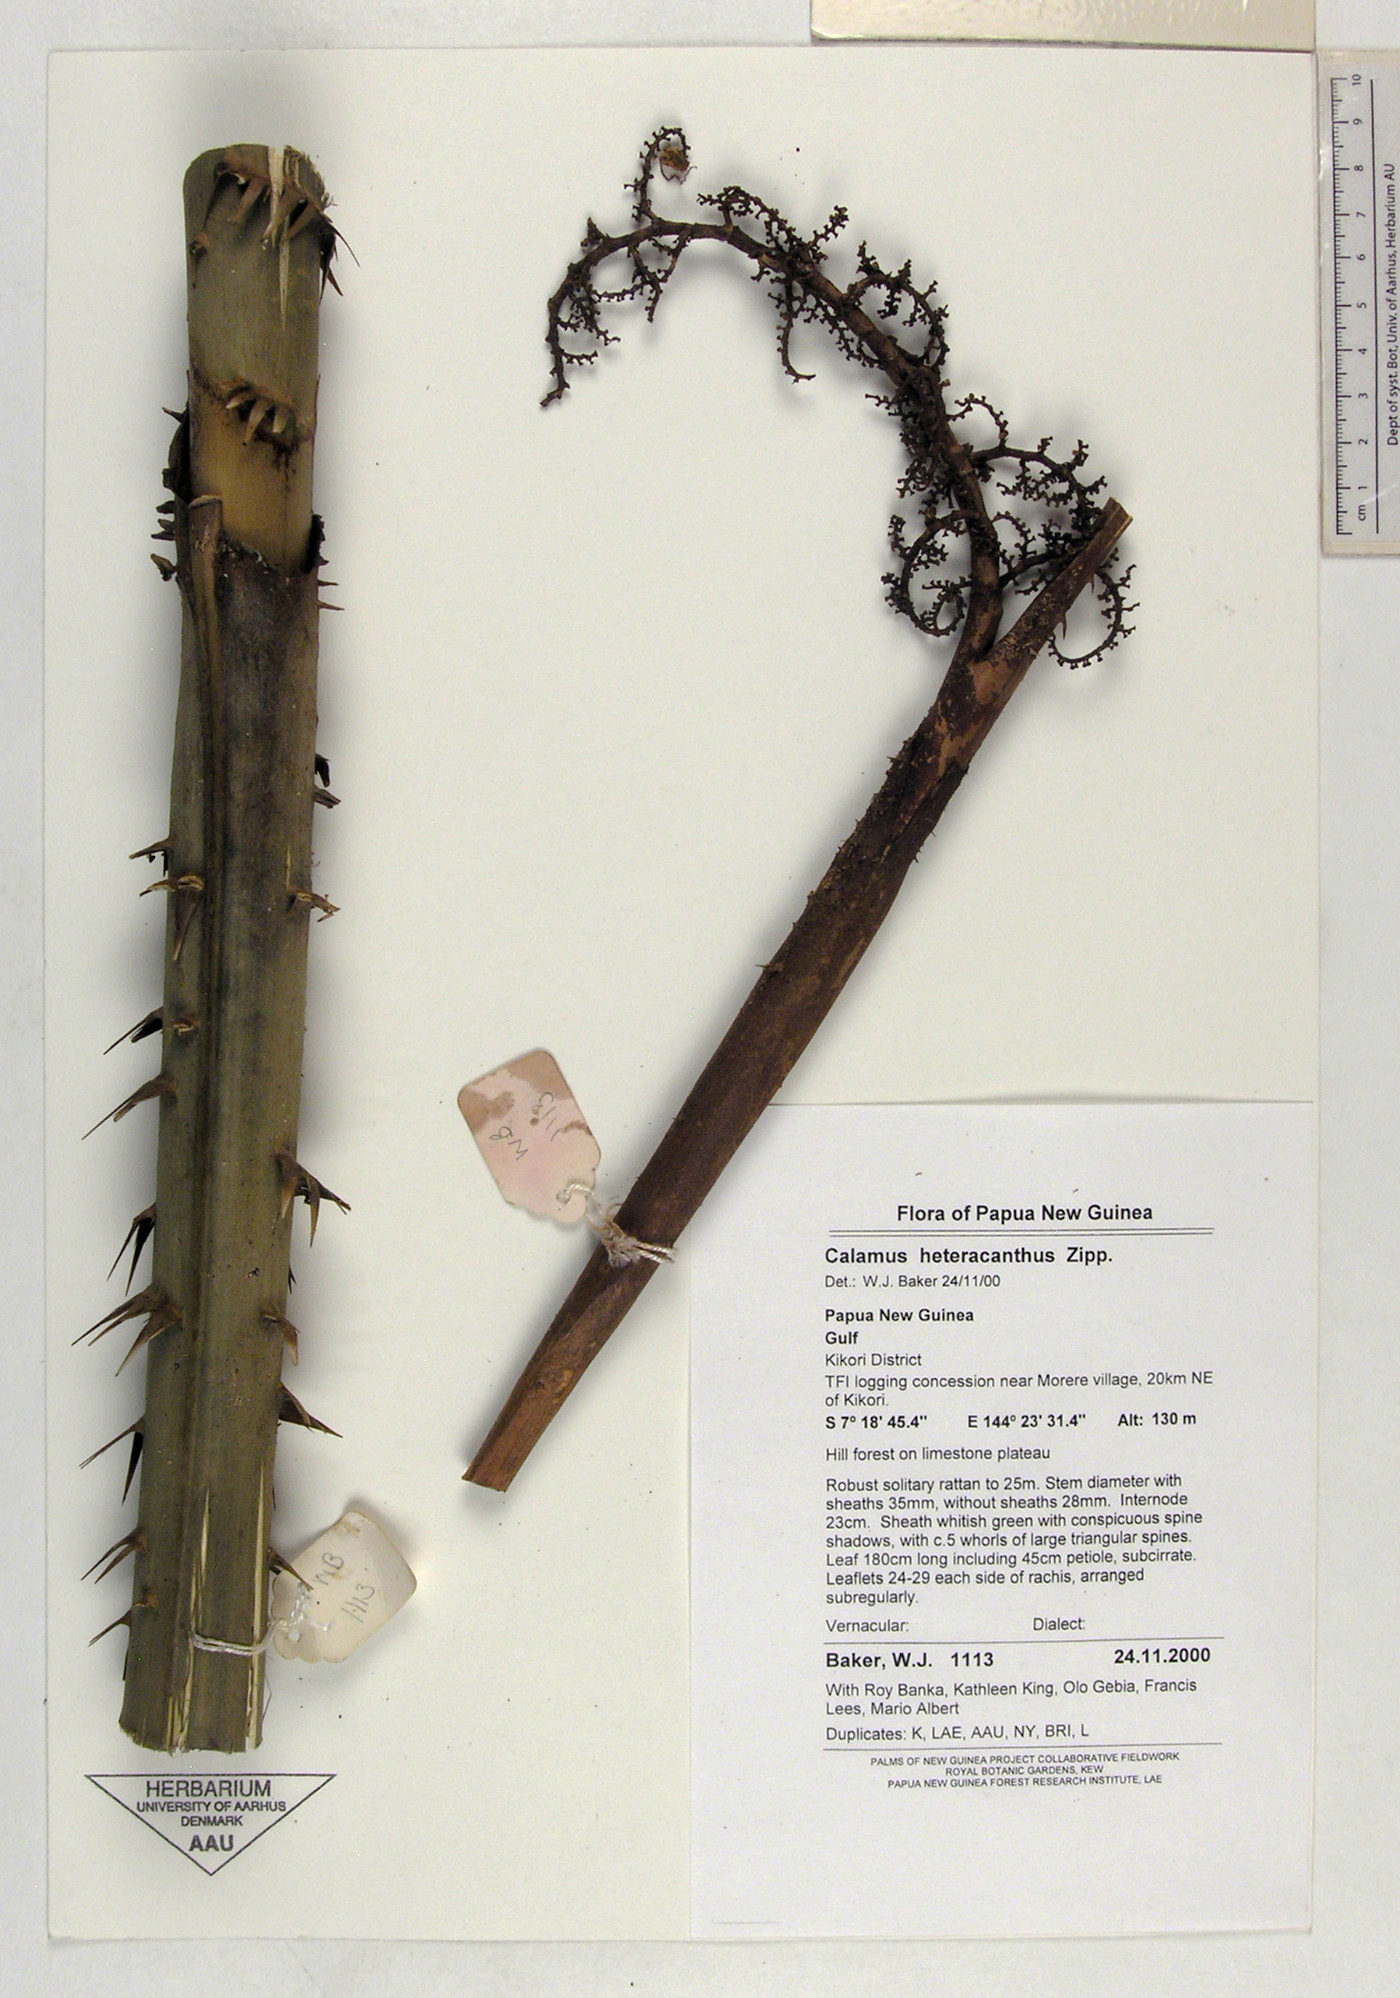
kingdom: Plantae
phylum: Tracheophyta
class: Liliopsida
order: Arecales
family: Arecaceae
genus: Calamus
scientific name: Calamus heteracanthus
